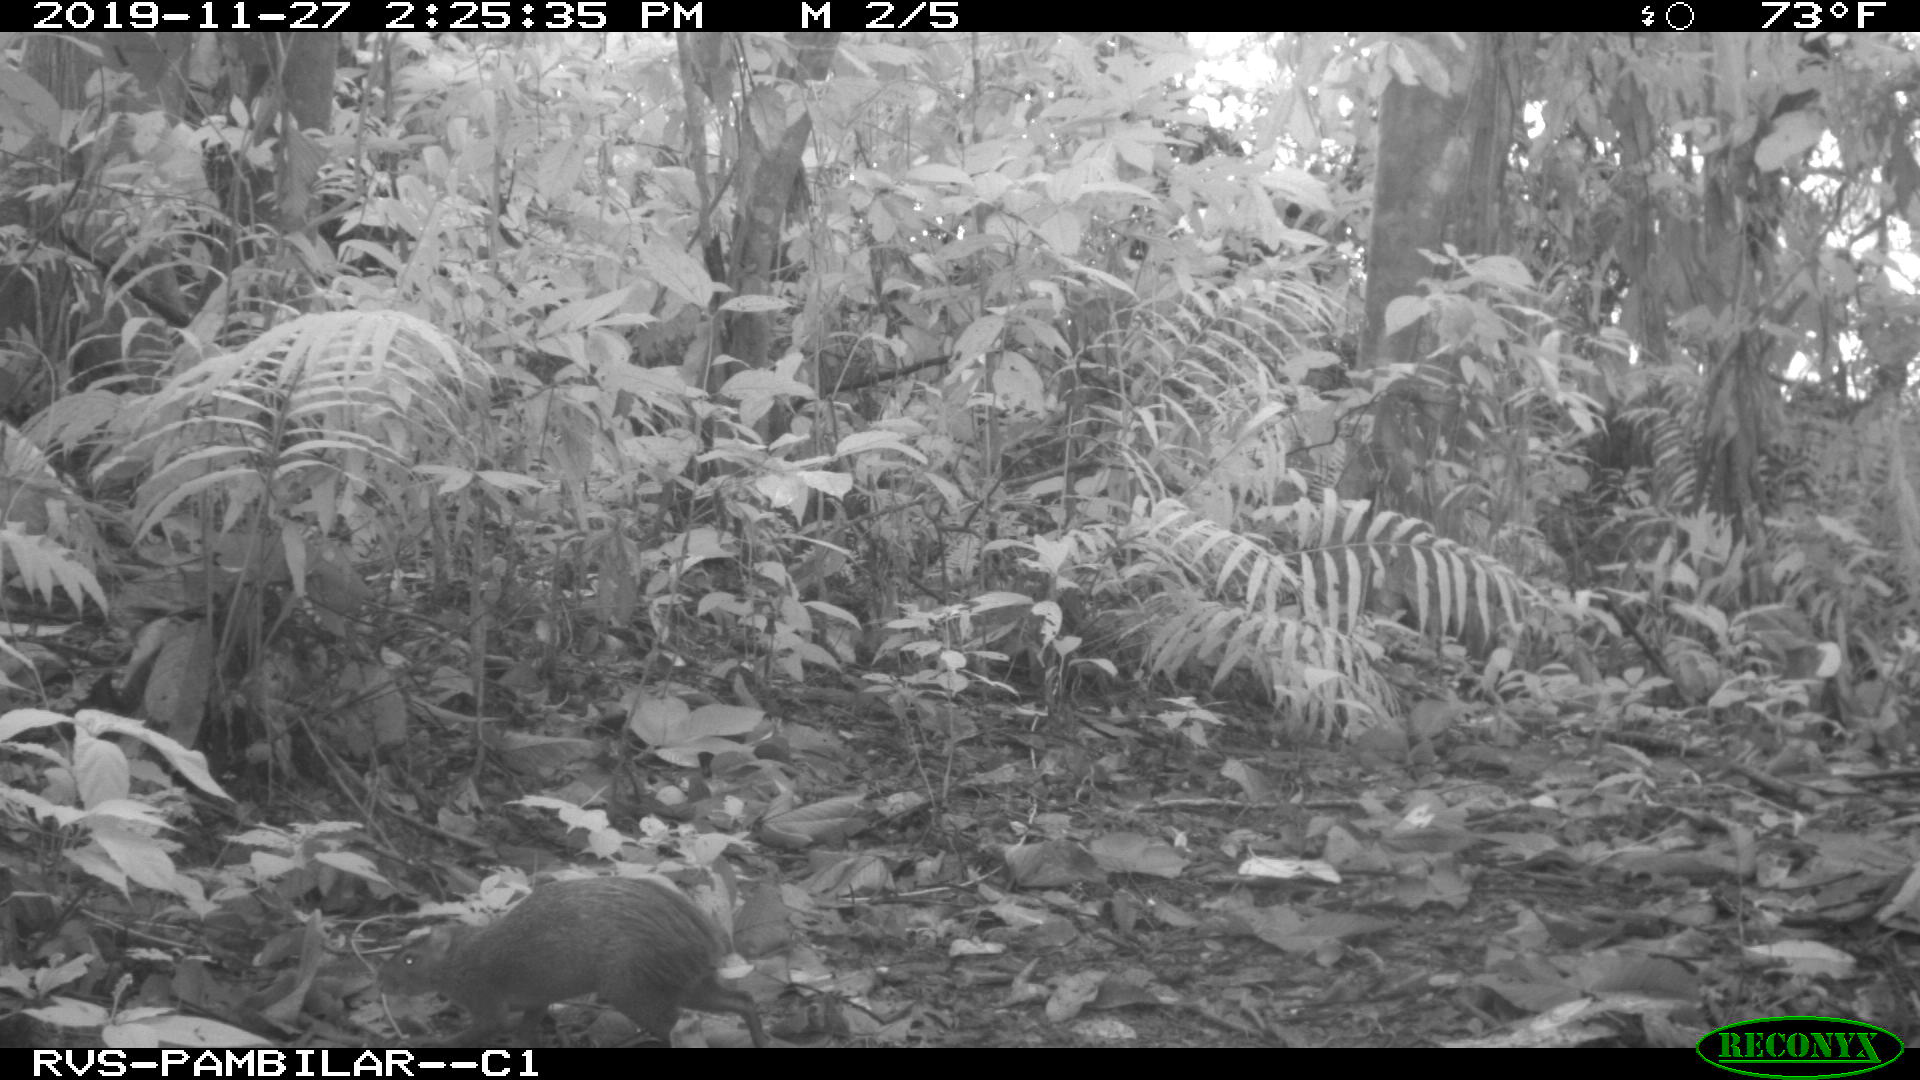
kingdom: Animalia
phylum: Chordata
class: Mammalia
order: Rodentia
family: Dasyproctidae
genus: Dasyprocta
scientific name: Dasyprocta punctata
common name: Central american agouti
